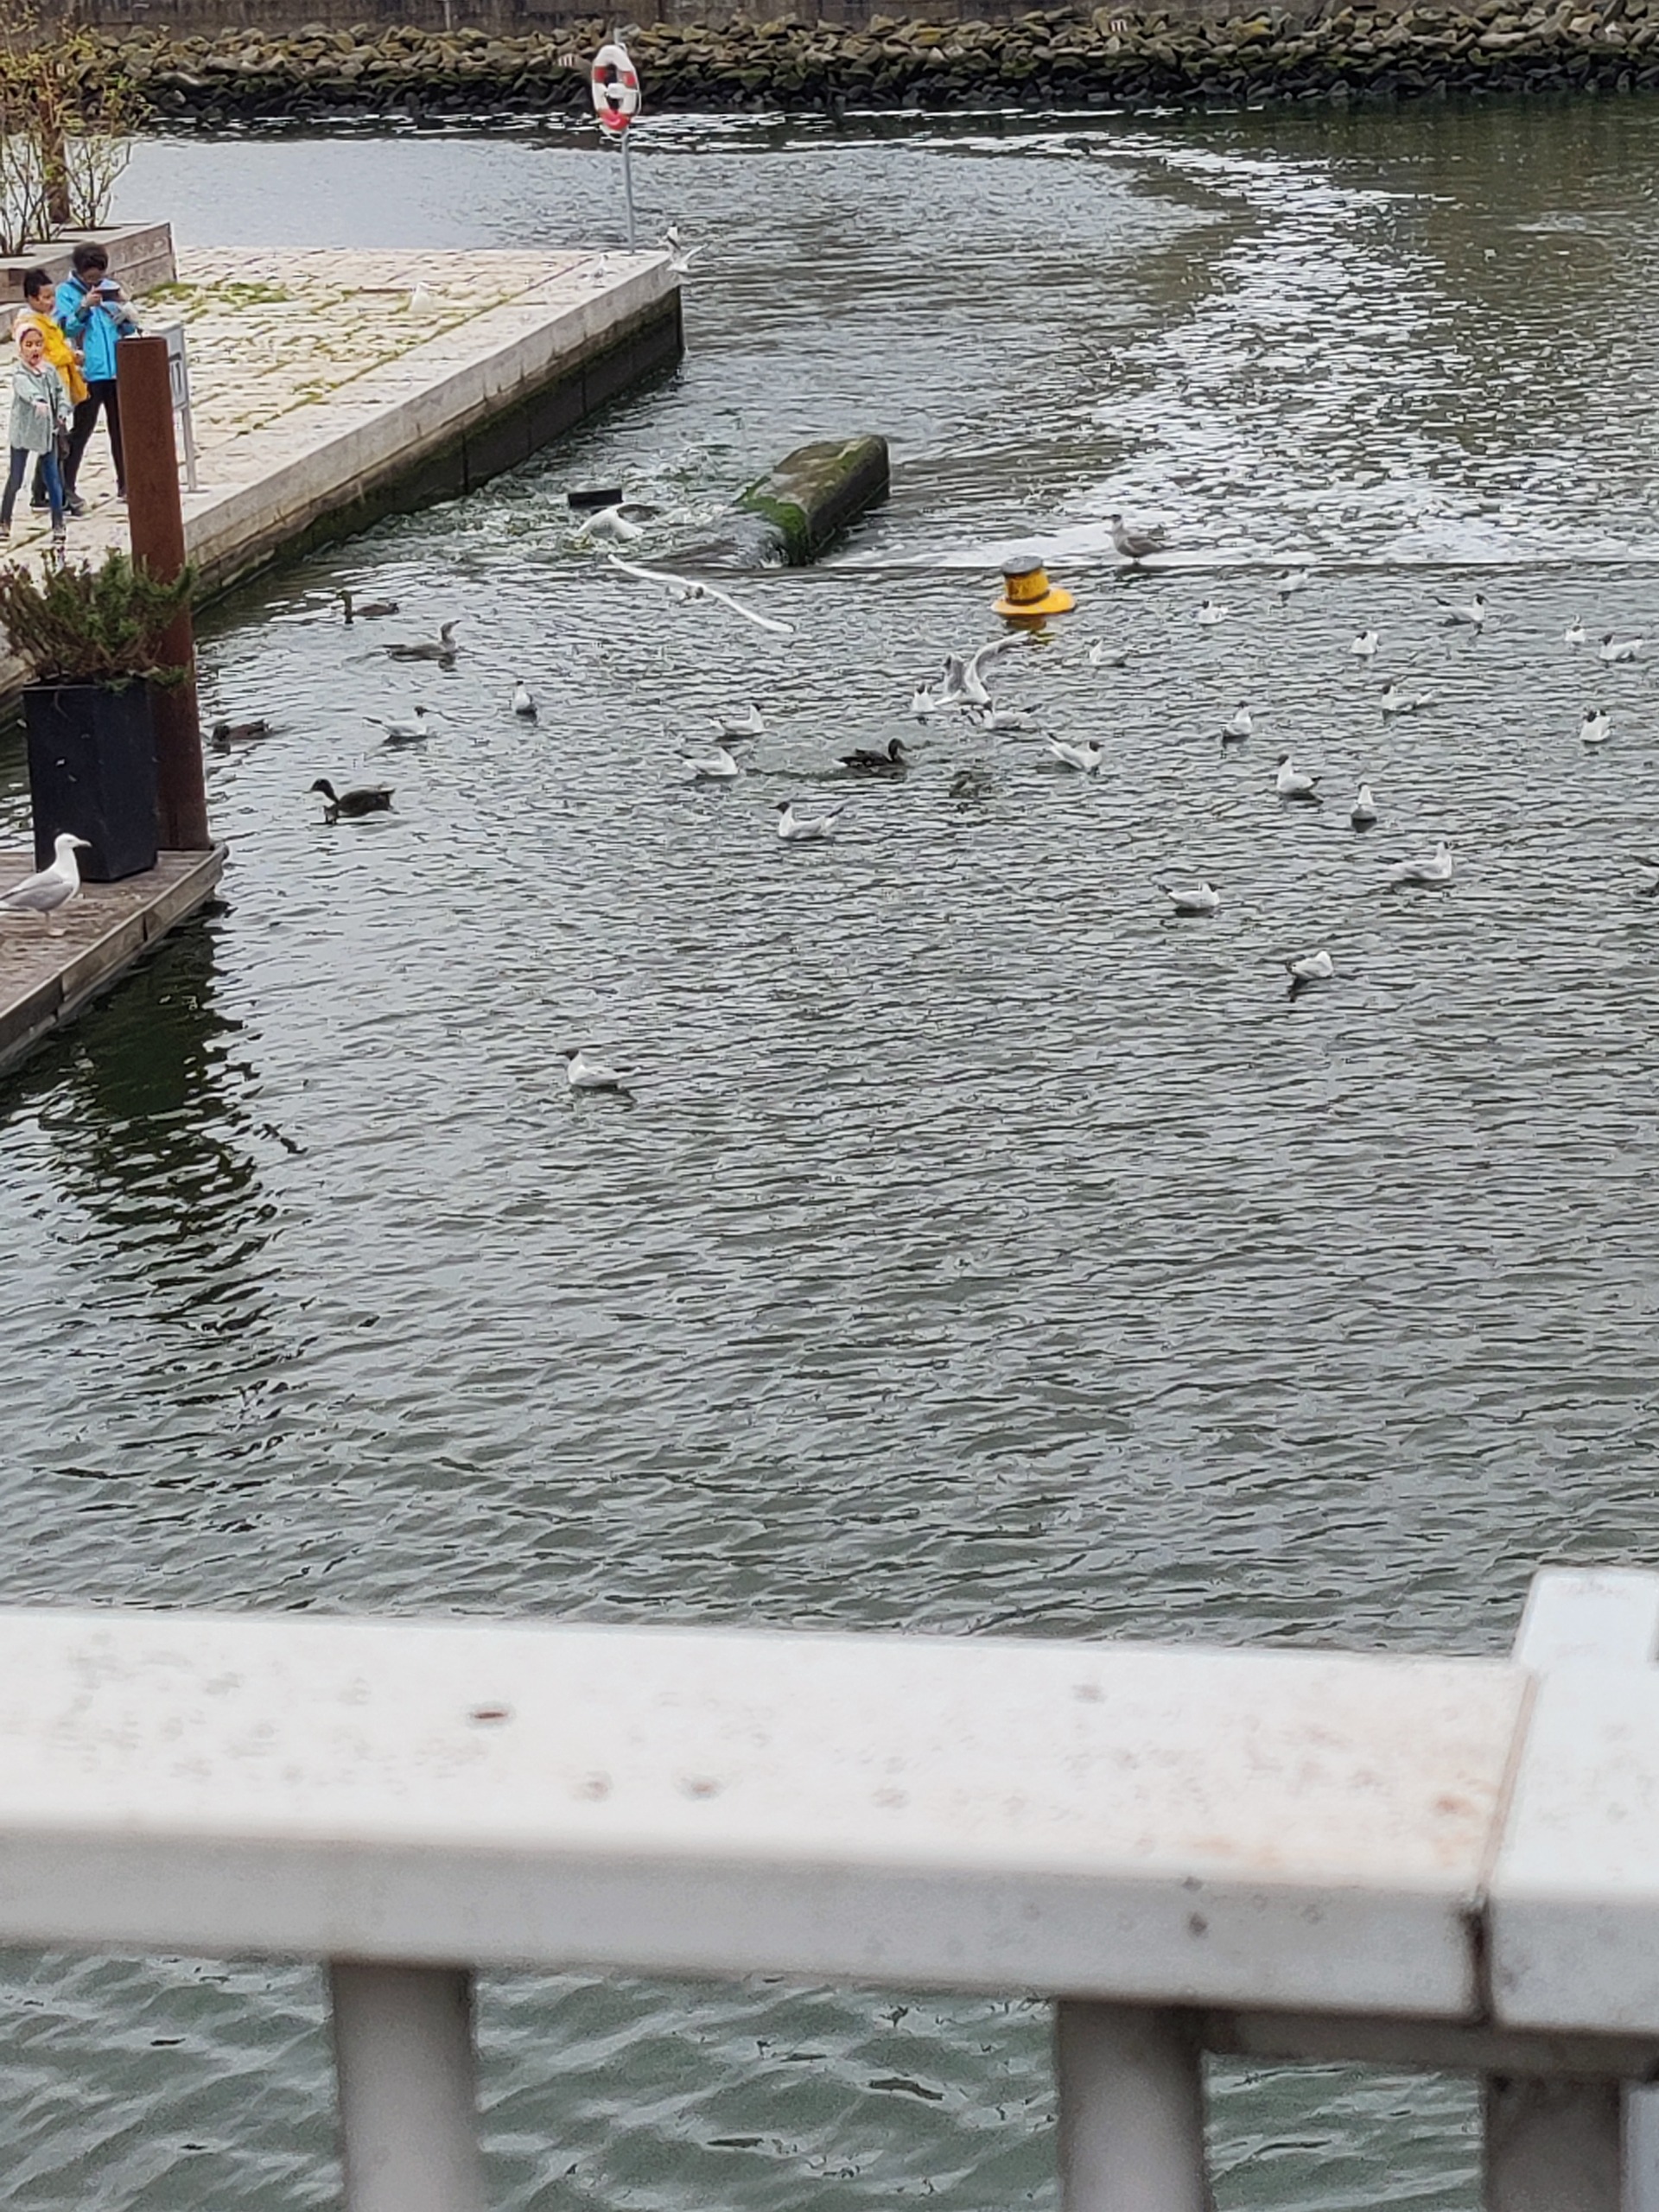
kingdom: Animalia
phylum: Chordata
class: Aves
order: Charadriiformes
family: Laridae
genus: Chroicocephalus
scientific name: Chroicocephalus ridibundus
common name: Hættemåge
